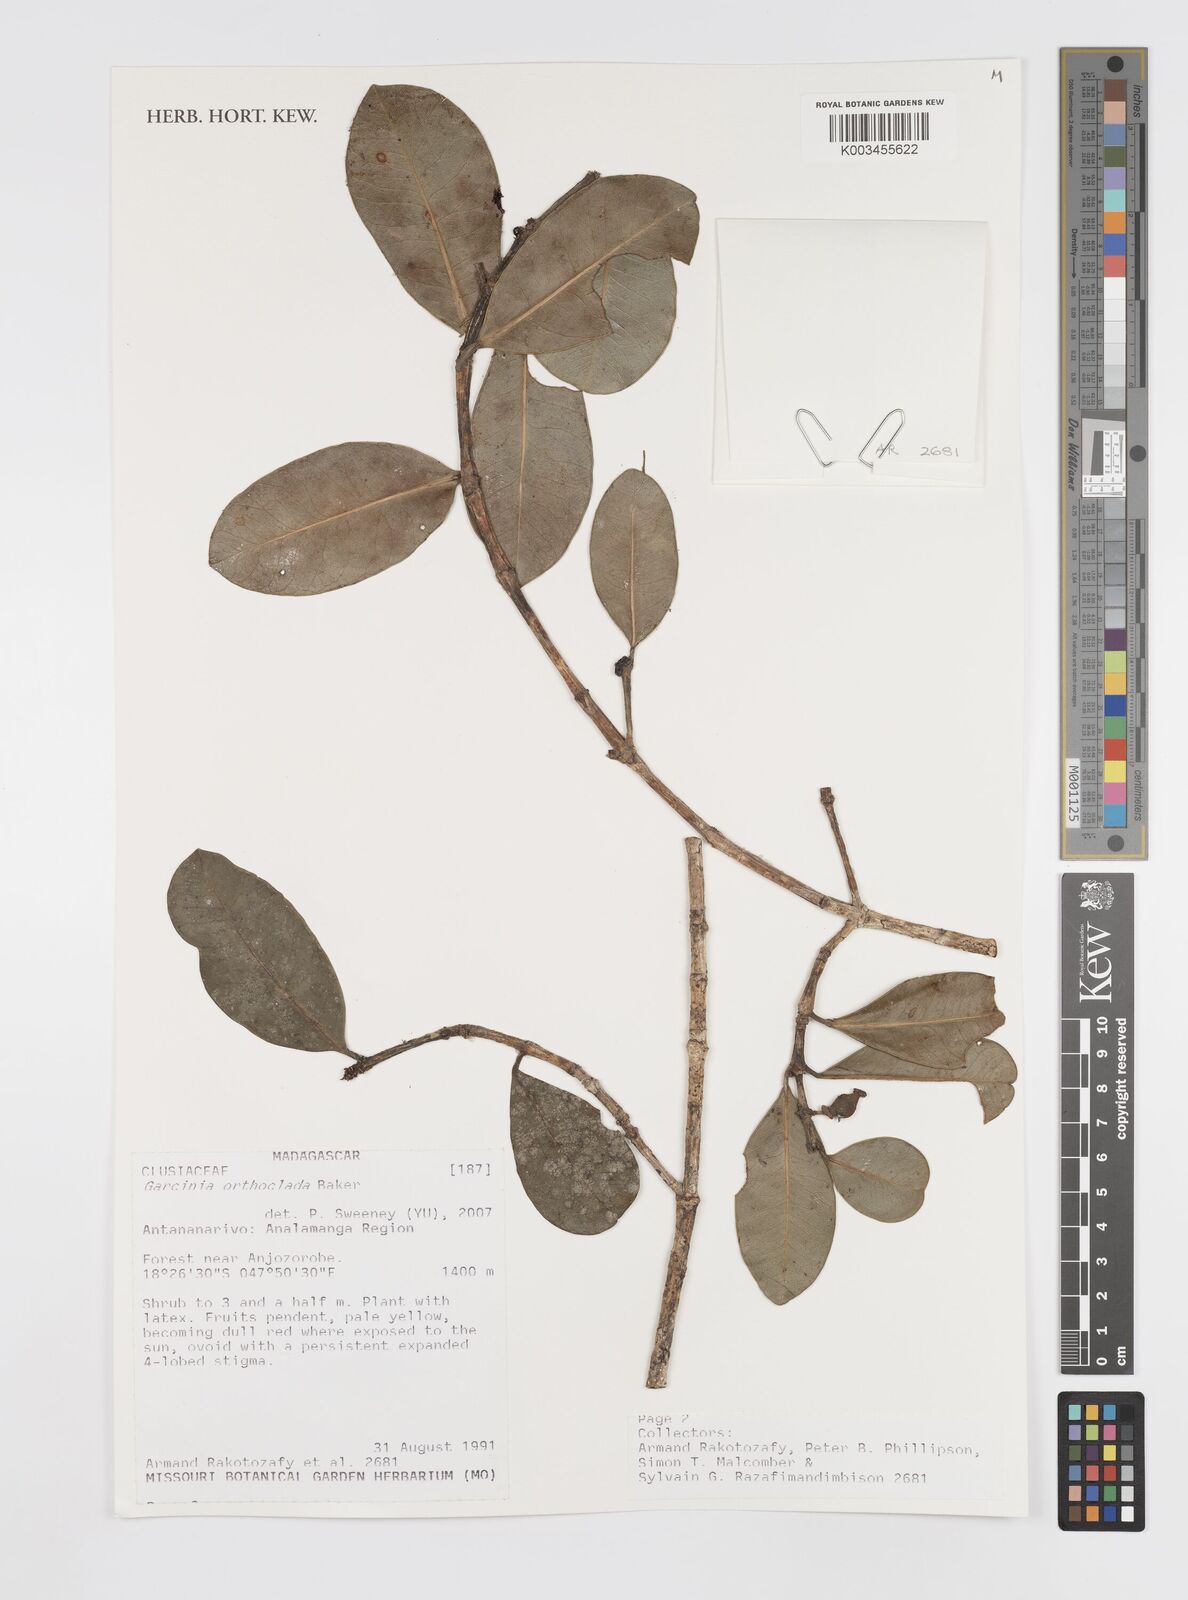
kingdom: Plantae
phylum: Tracheophyta
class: Magnoliopsida
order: Malpighiales
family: Clusiaceae
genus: Garcinia
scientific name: Garcinia orthoclada
